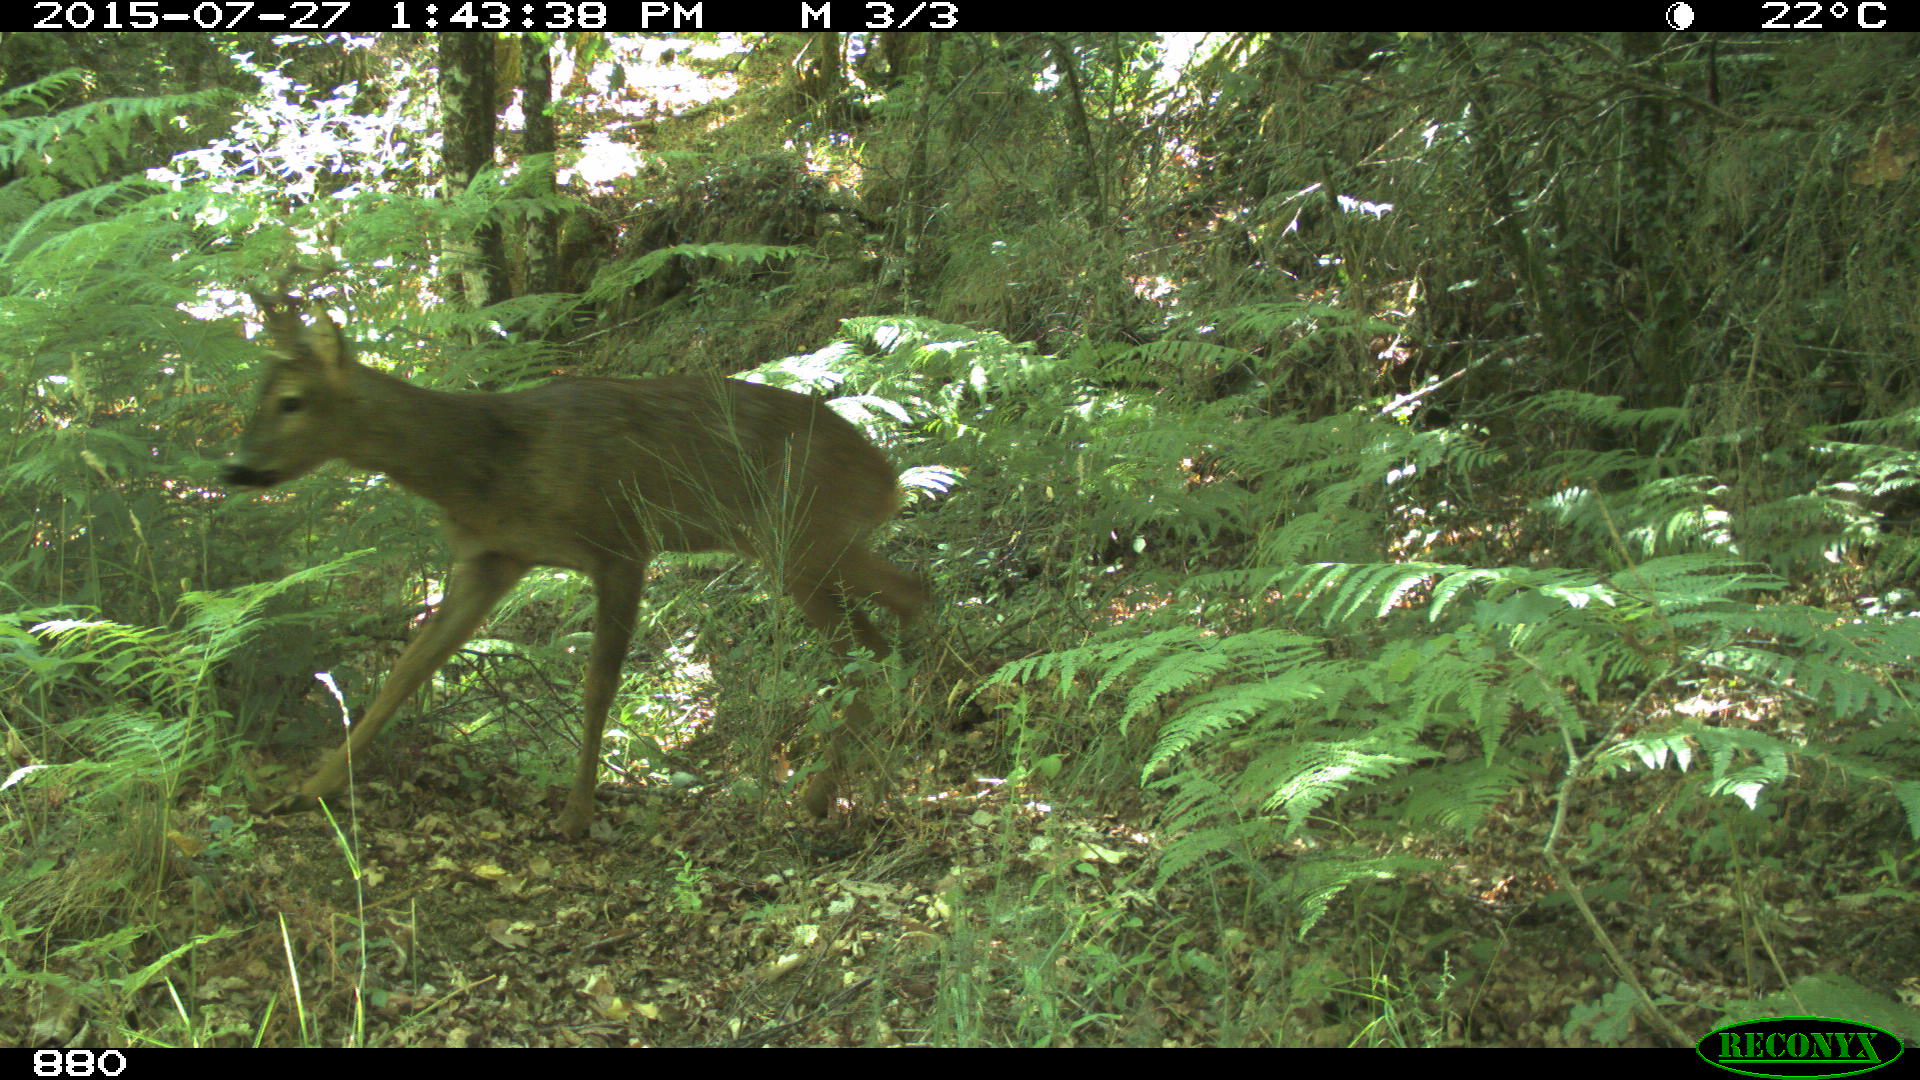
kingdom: Animalia
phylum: Chordata
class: Mammalia
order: Artiodactyla
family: Cervidae
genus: Capreolus
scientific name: Capreolus capreolus
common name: Western roe deer
